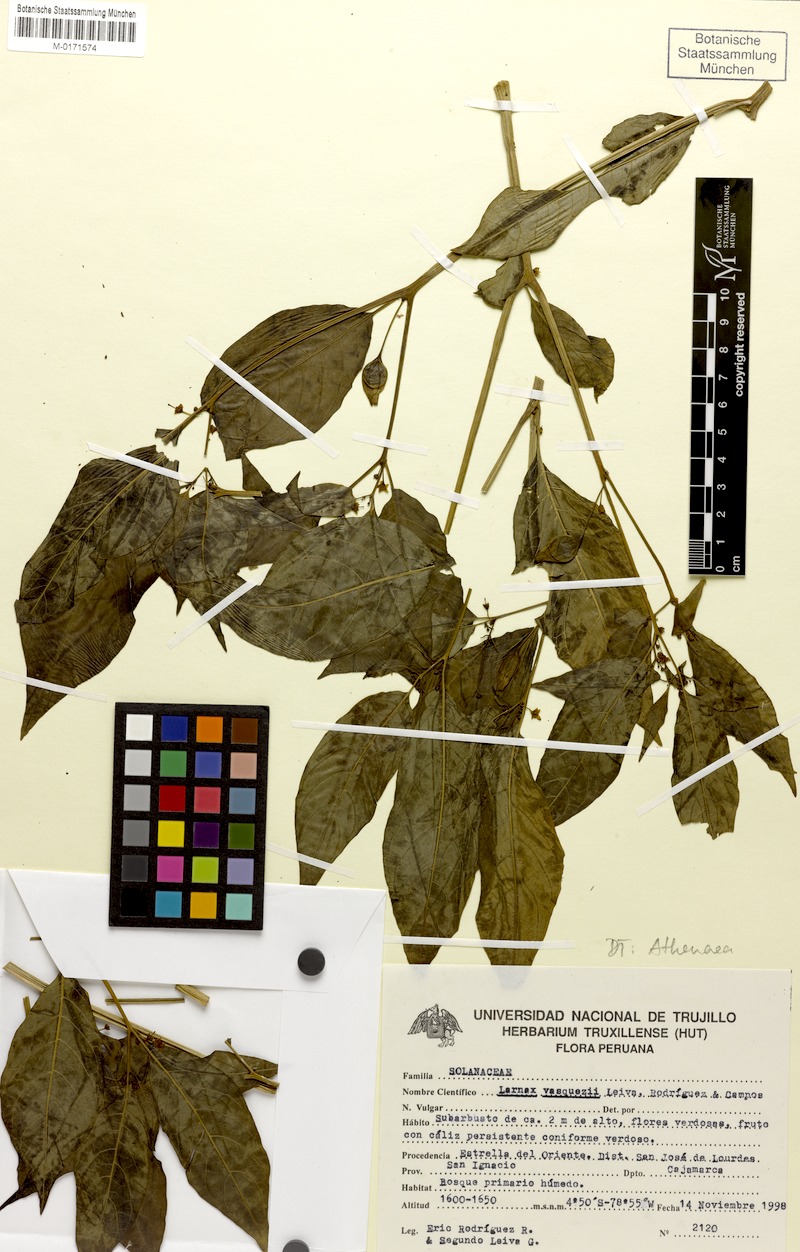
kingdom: Plantae
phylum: Tracheophyta
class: Magnoliopsida
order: Solanales
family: Solanaceae
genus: Deprea
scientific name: Deprea vasquezii
